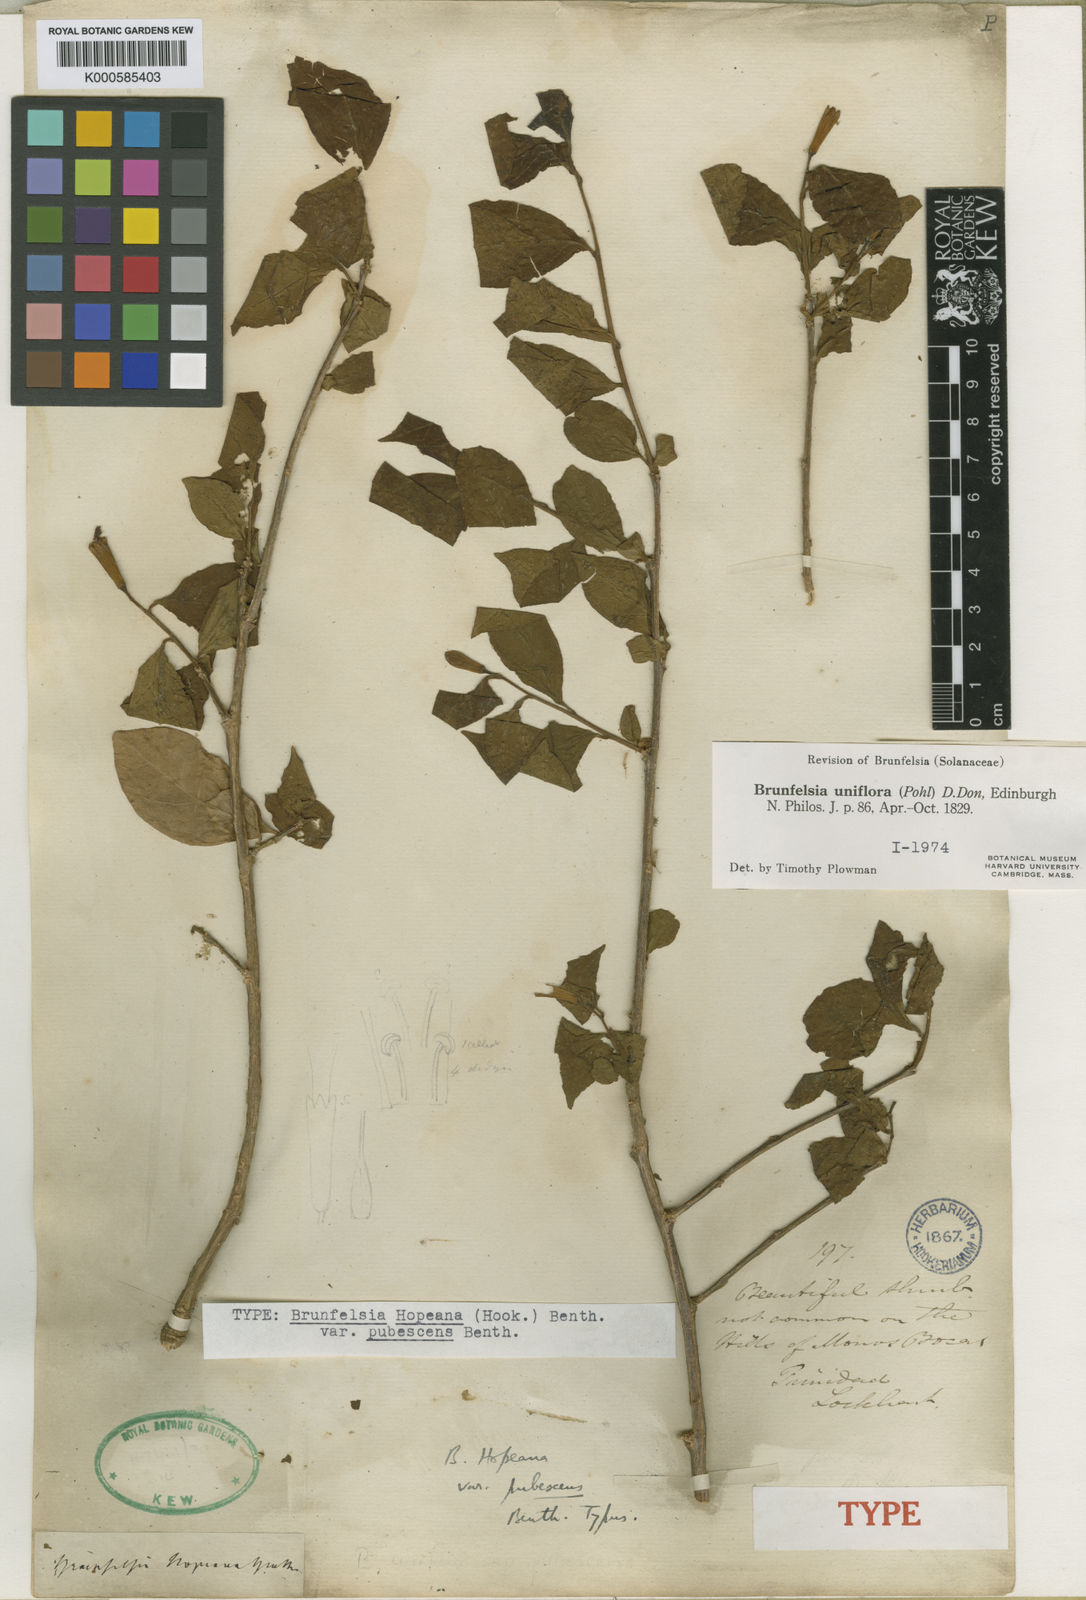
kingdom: Plantae
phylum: Tracheophyta
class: Magnoliopsida
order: Solanales
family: Solanaceae
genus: Brunfelsia
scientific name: Brunfelsia uniflora
